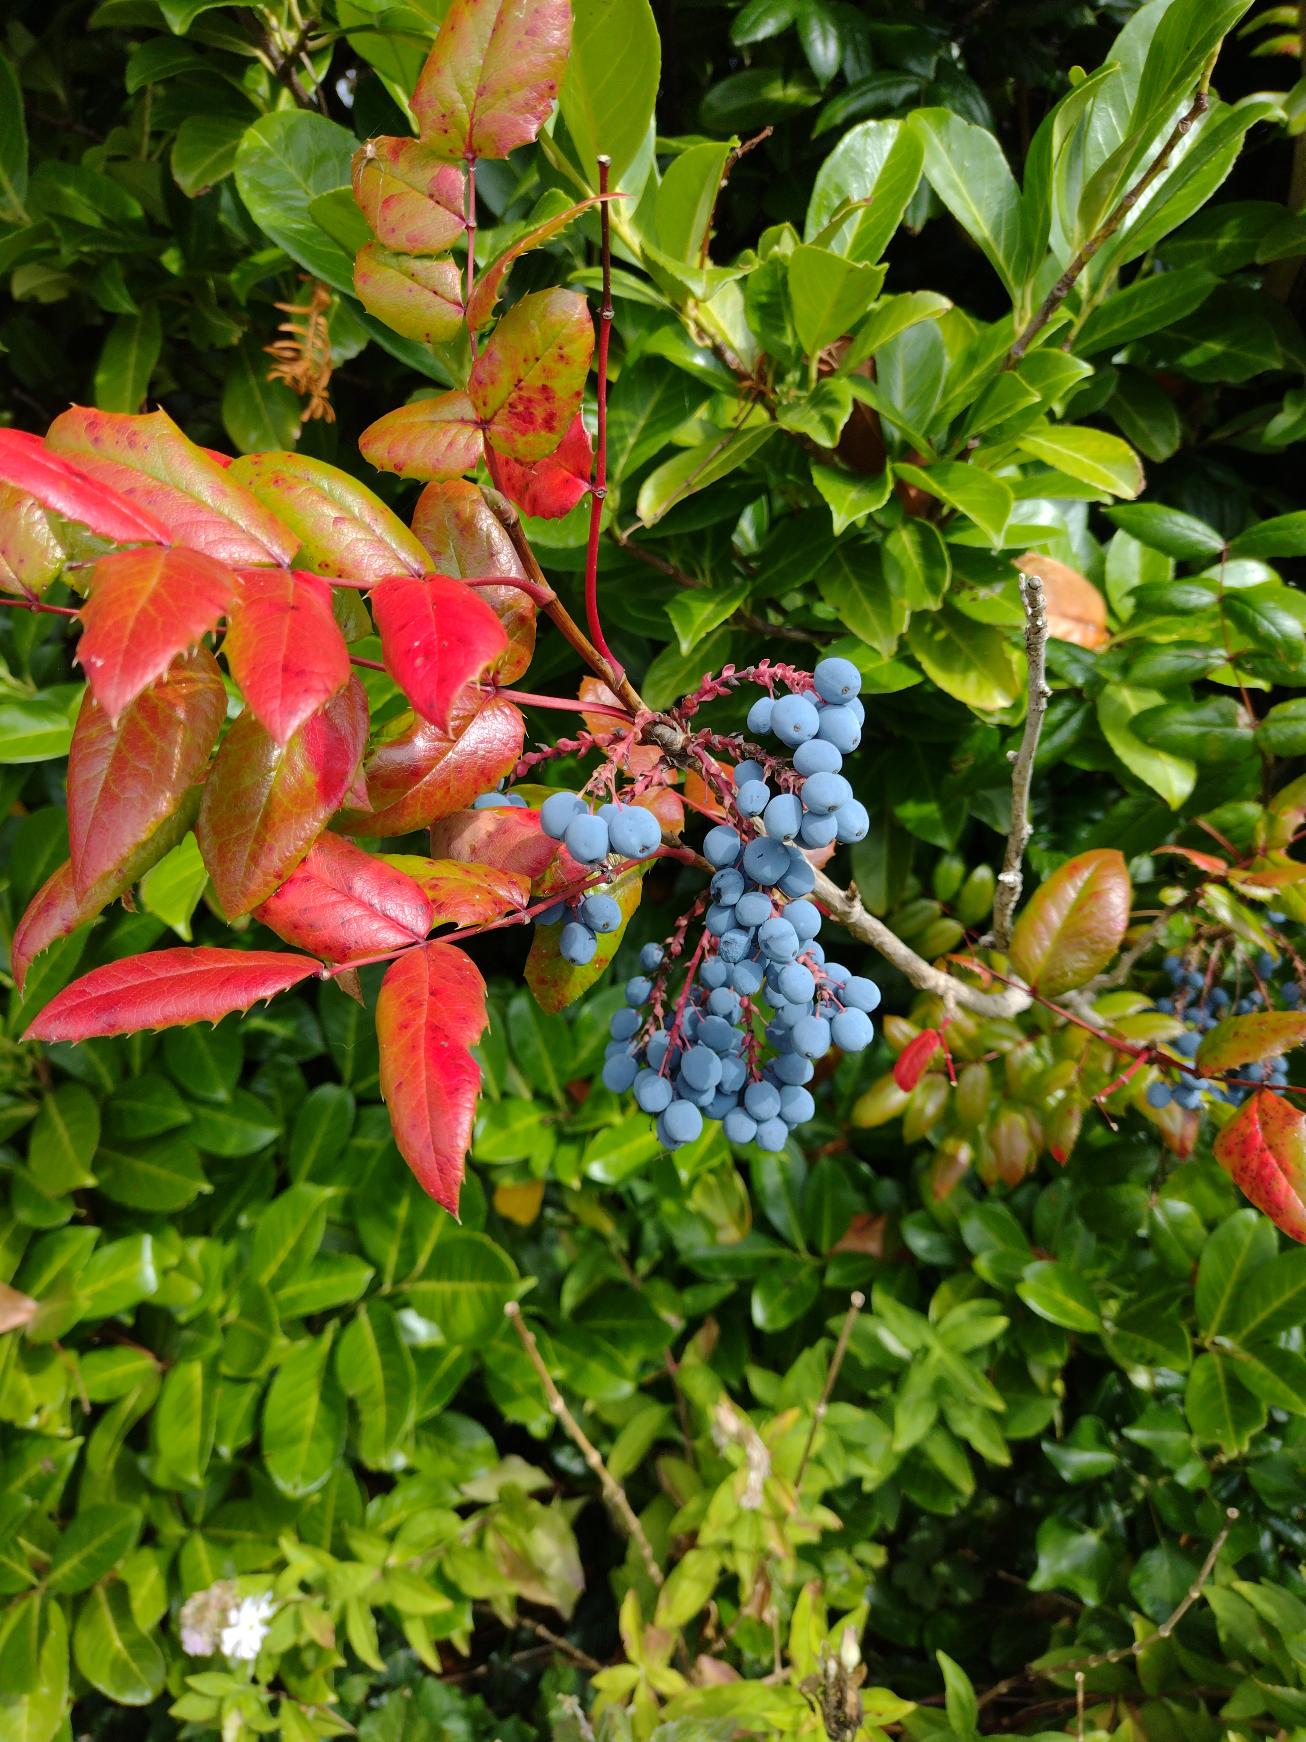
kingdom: Plantae
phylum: Tracheophyta
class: Magnoliopsida
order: Ranunculales
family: Berberidaceae
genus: Mahonia
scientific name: Mahonia aquifolium
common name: Almindelig mahonie
